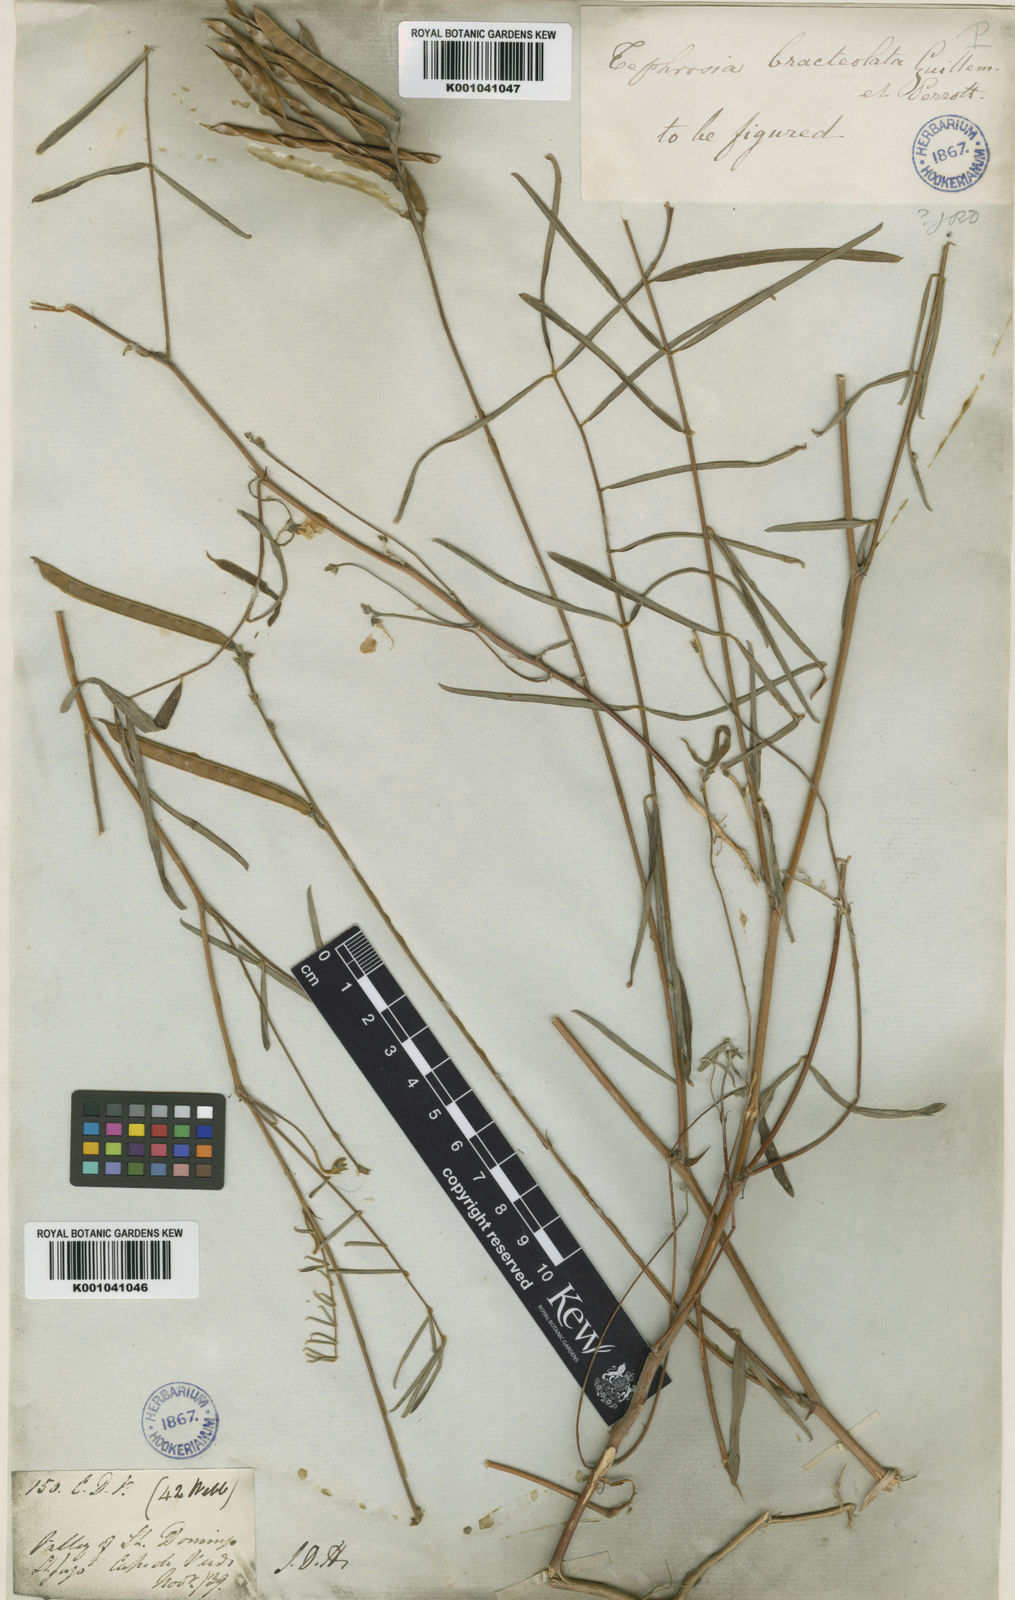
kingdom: Plantae
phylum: Tracheophyta
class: Magnoliopsida
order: Fabales
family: Fabaceae
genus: Tephrosia
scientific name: Tephrosia bracteolata
